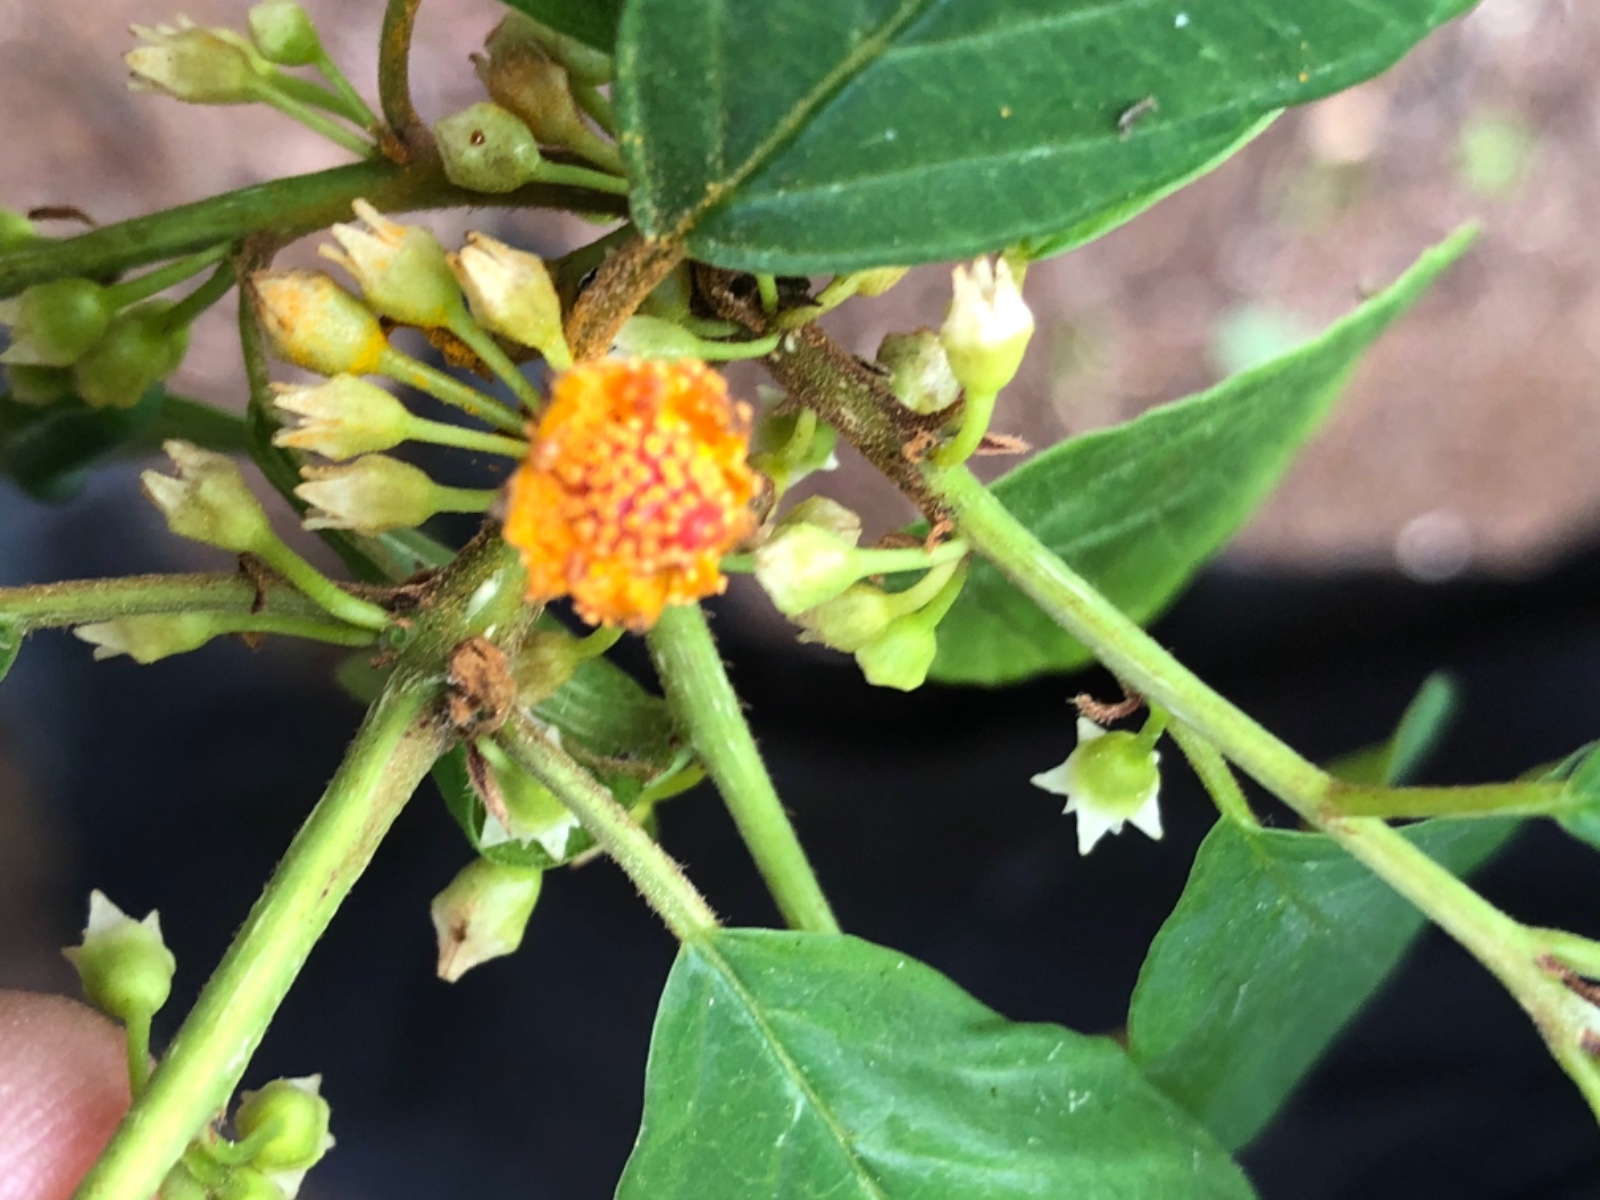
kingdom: Fungi
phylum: Basidiomycota
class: Pucciniomycetes
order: Pucciniales
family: Pucciniaceae
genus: Puccinia
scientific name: Puccinia coronata
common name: Crown rust
